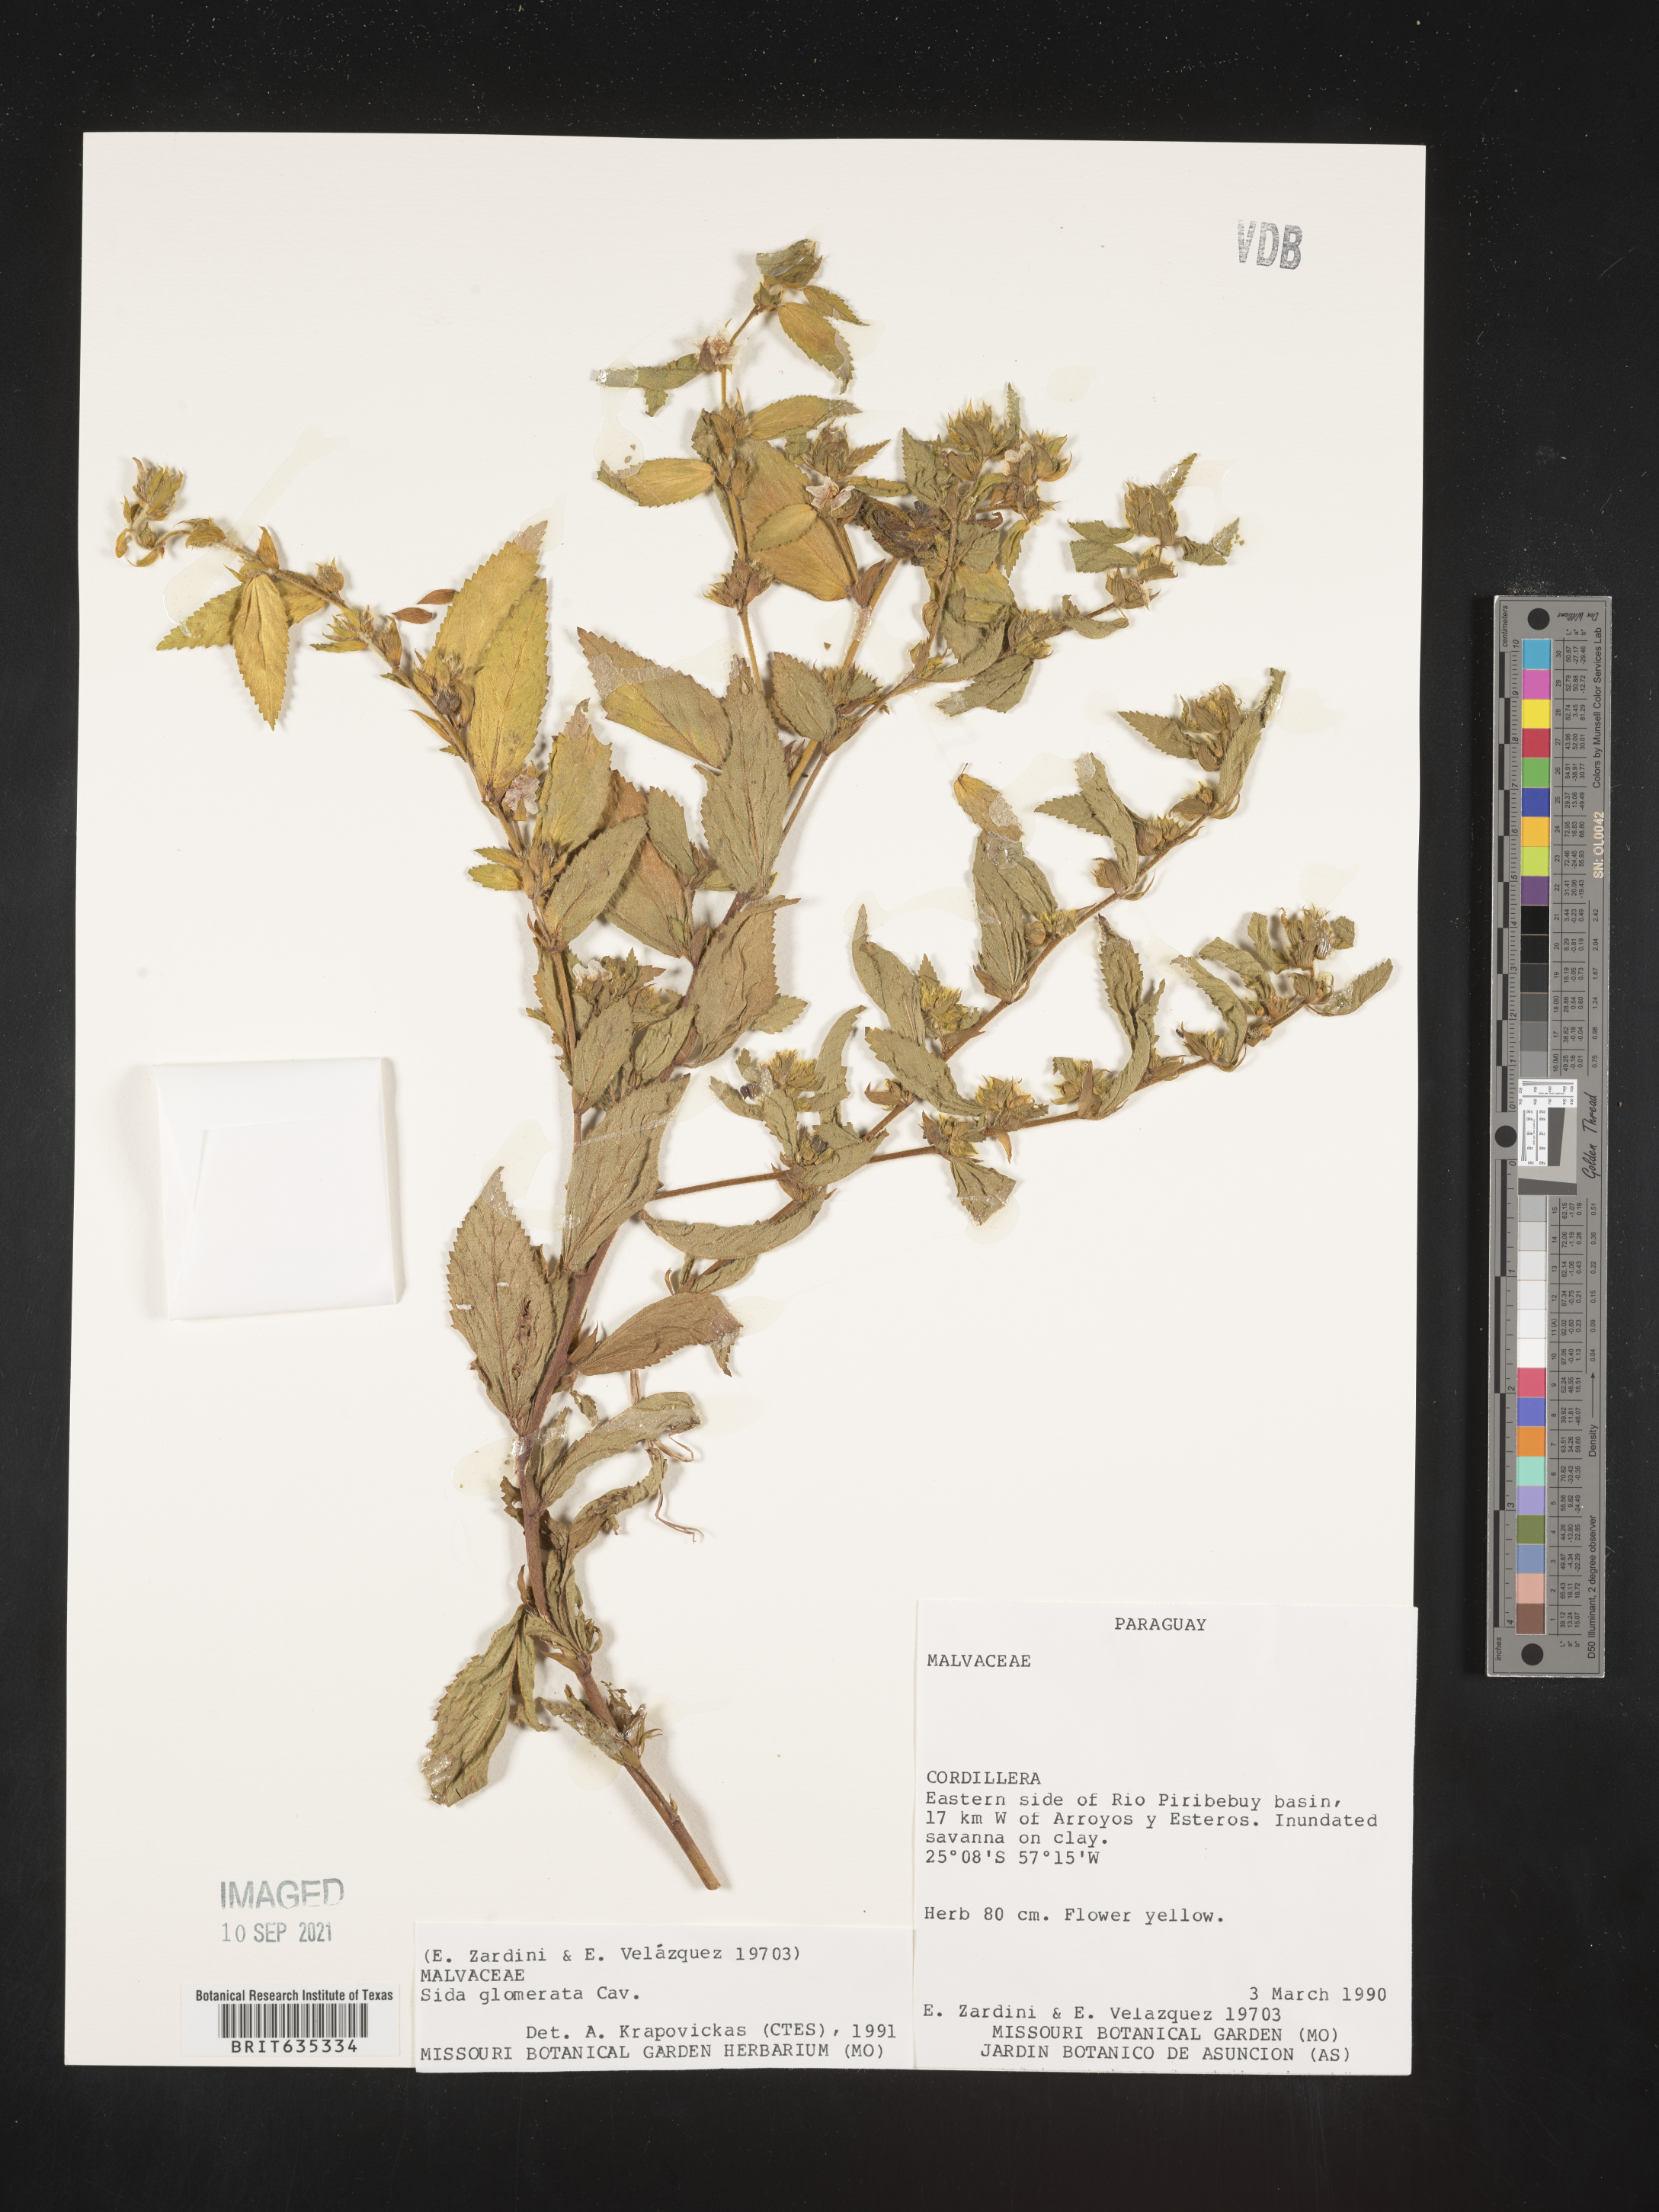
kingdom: Plantae
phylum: Tracheophyta
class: Magnoliopsida
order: Malvales
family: Malvaceae
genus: Sida
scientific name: Sida
